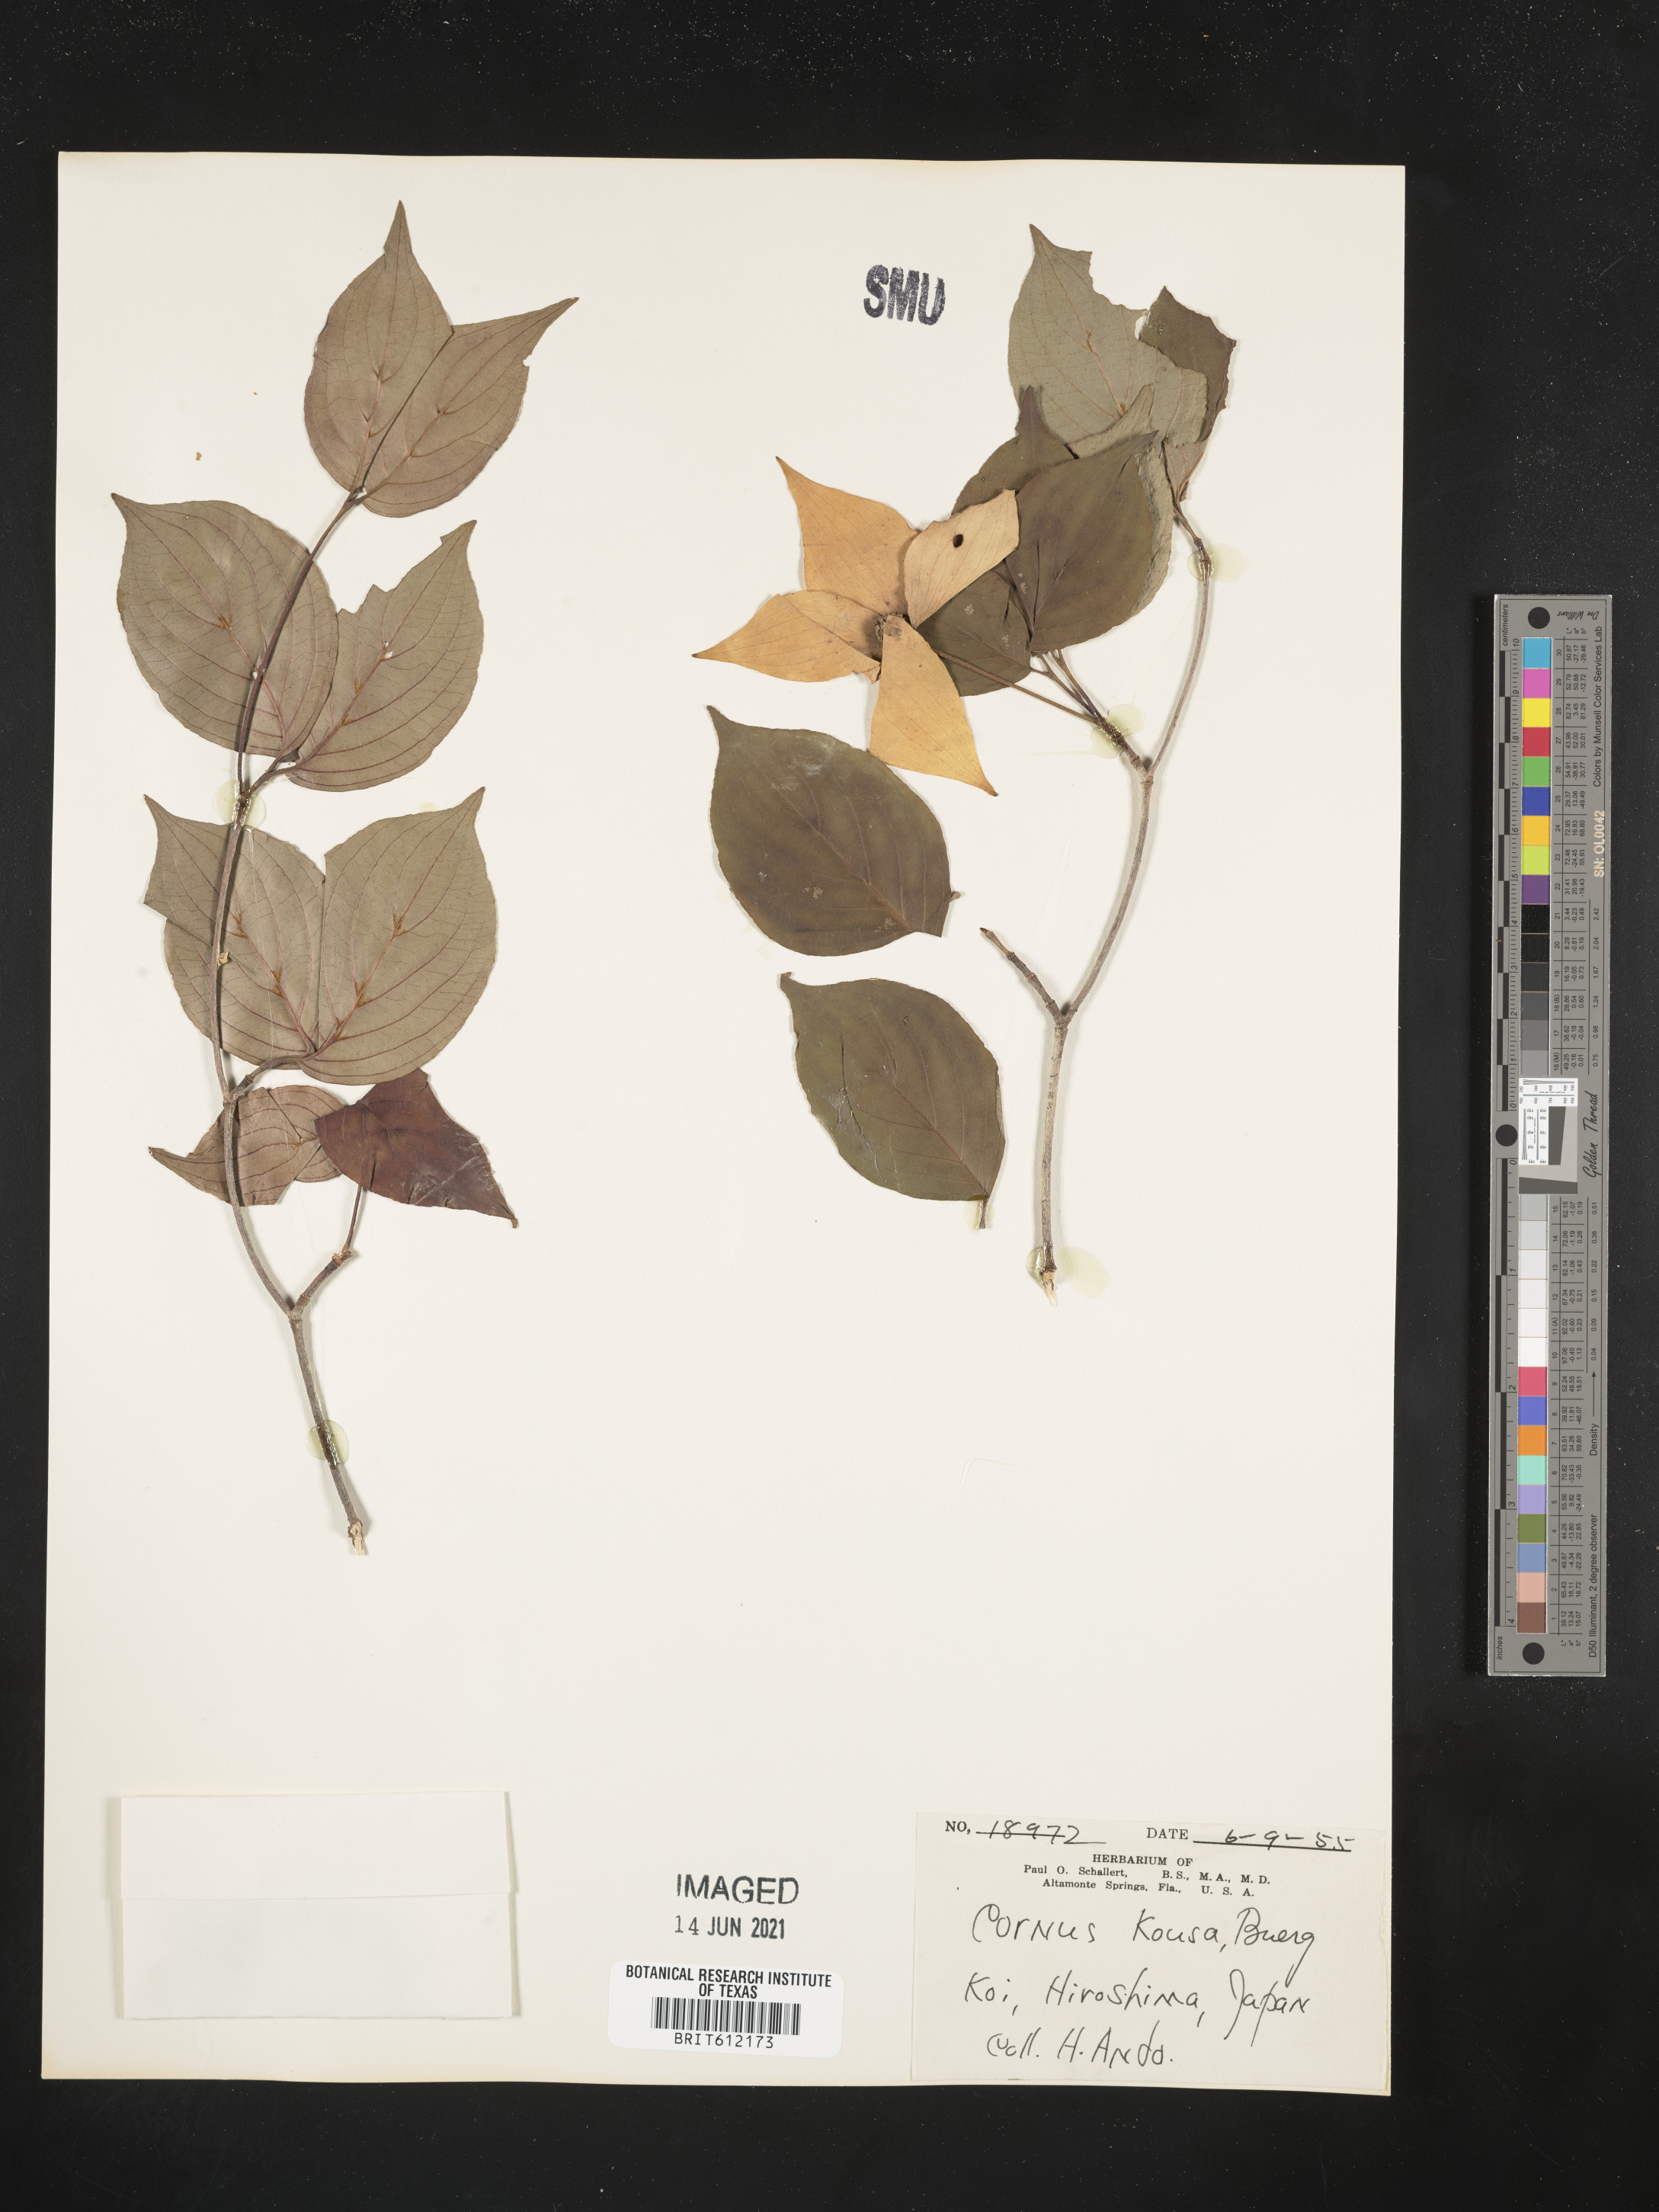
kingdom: Plantae
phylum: Tracheophyta
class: Magnoliopsida
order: Cornales
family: Cornaceae
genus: Cornus
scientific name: Cornus kousa
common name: Japanese dogwood
